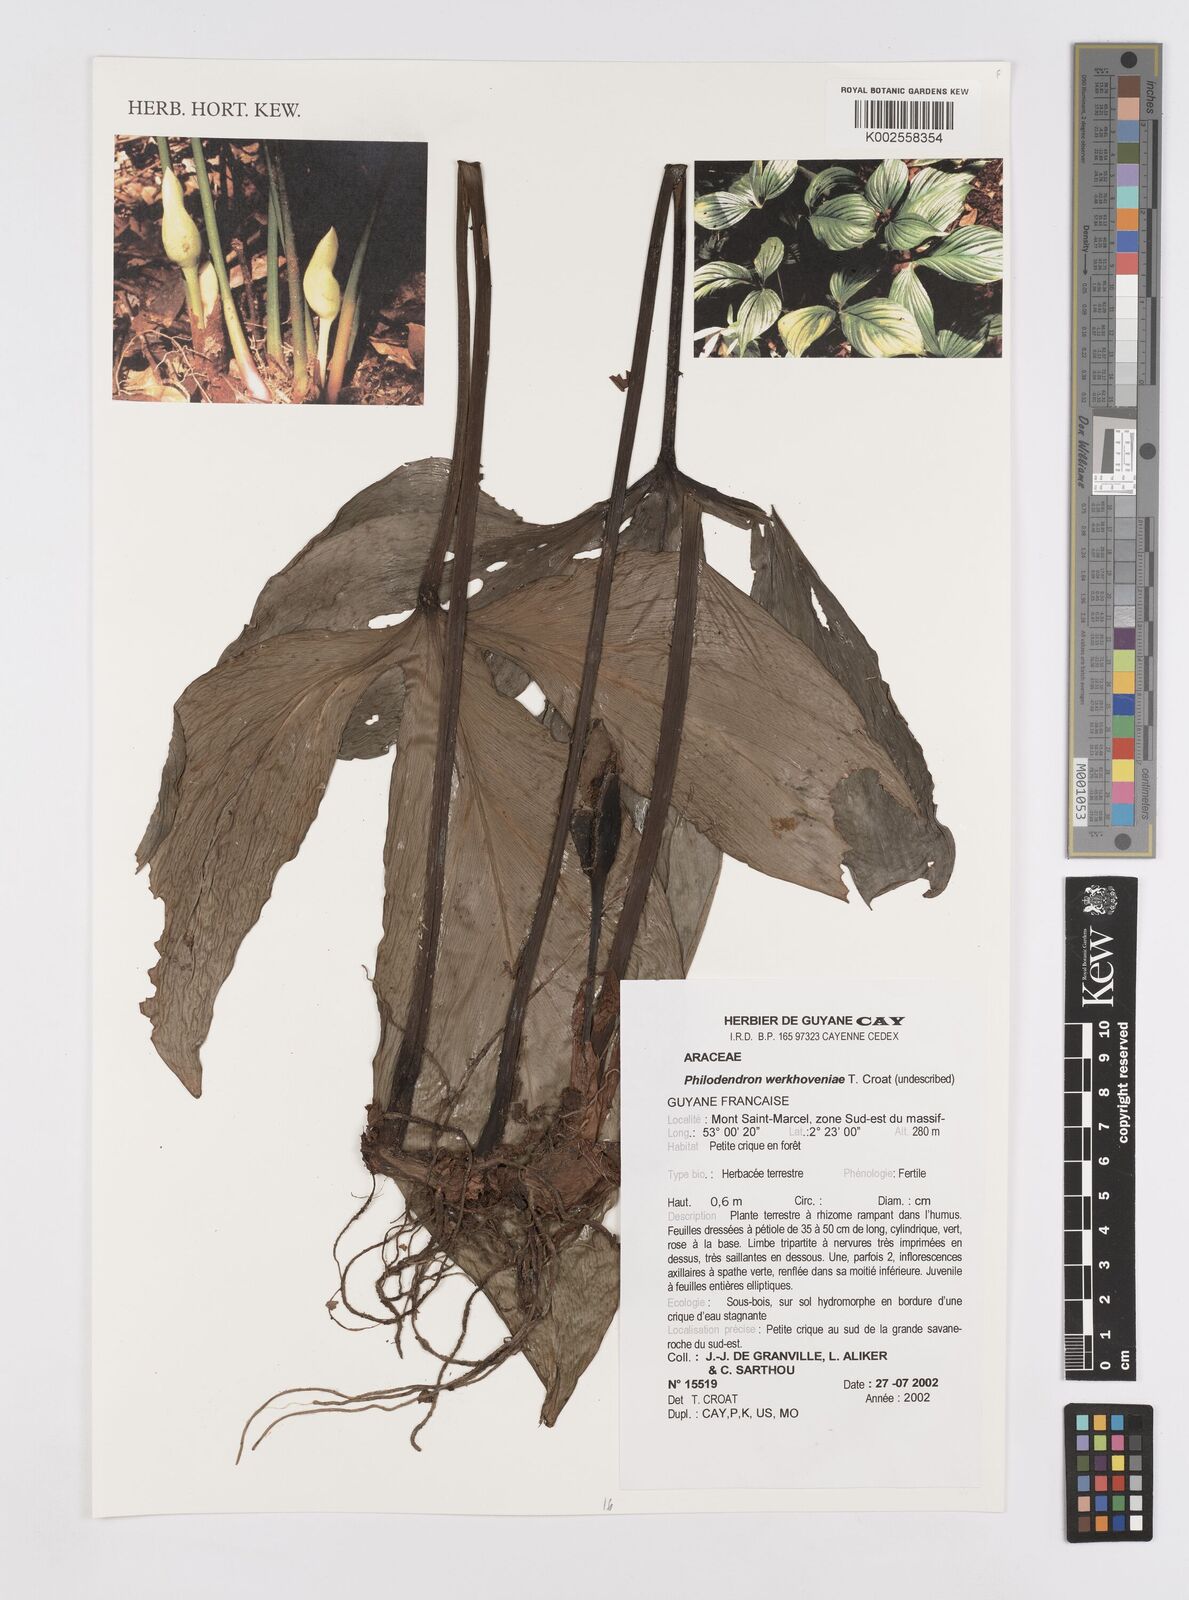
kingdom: Plantae
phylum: Tracheophyta
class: Liliopsida
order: Alismatales
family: Araceae
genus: Philodendron
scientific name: Philodendron werkhoveniae
